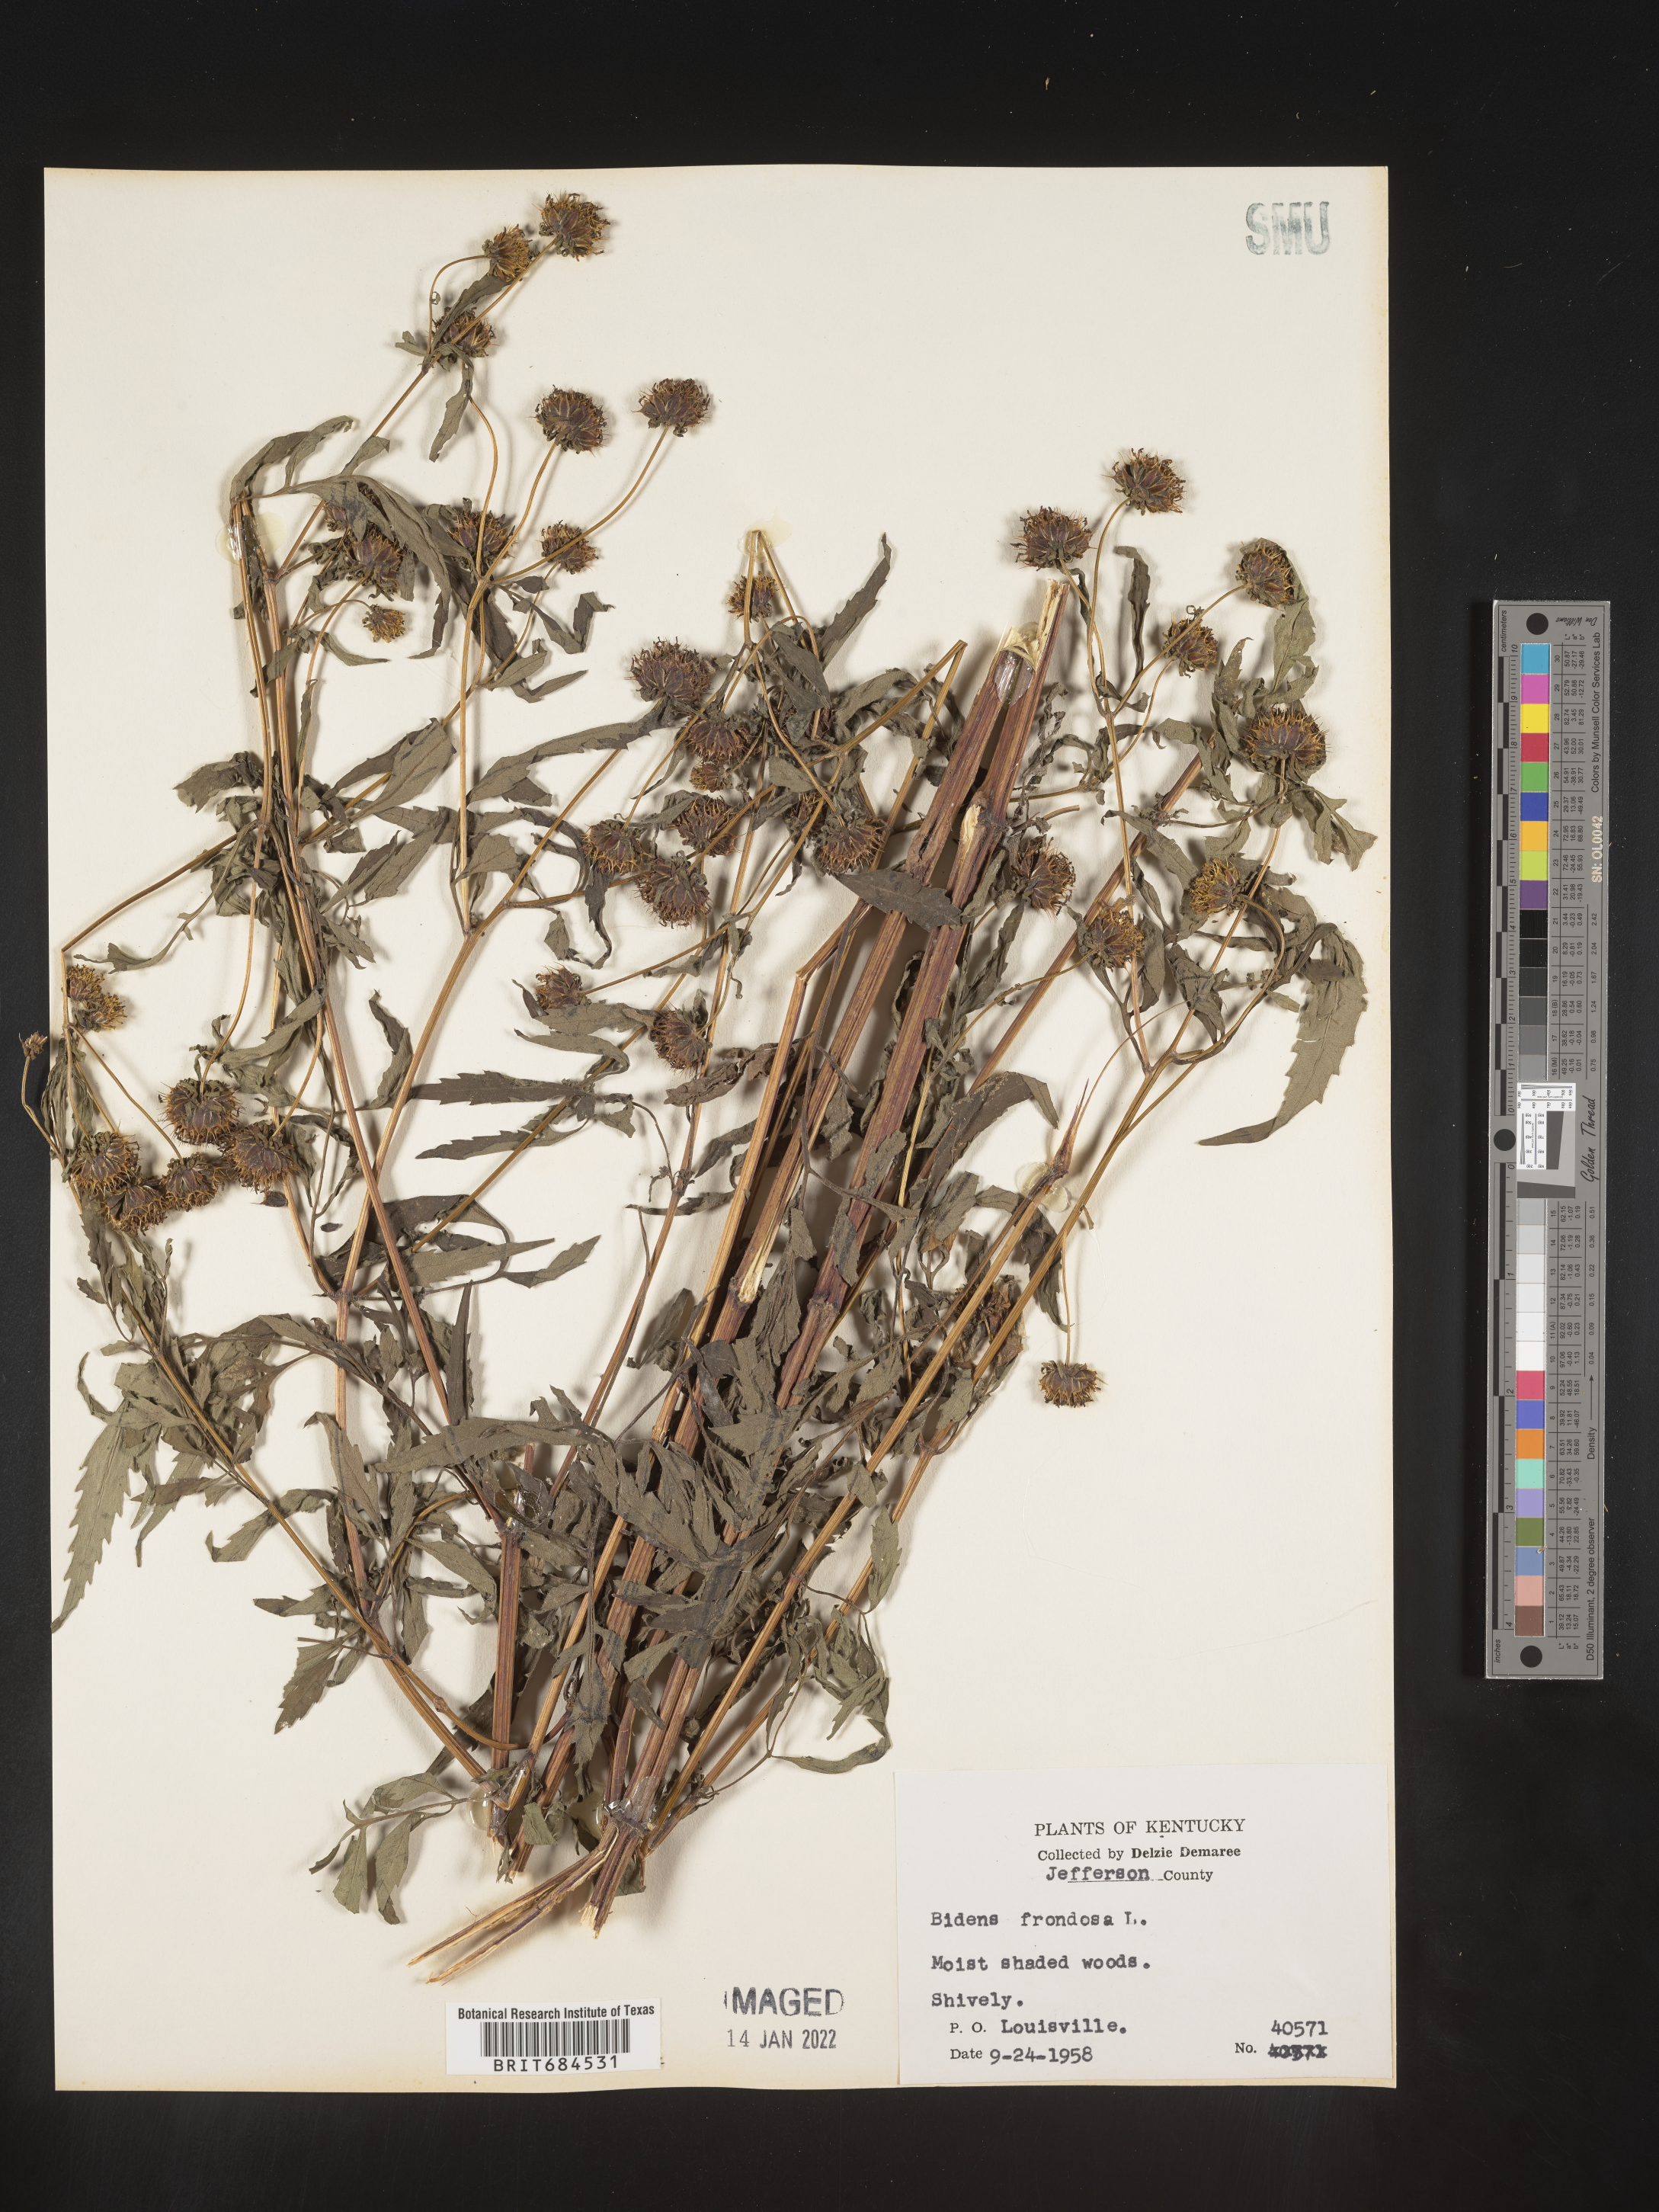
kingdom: Plantae
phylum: Tracheophyta
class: Magnoliopsida
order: Asterales
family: Asteraceae
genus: Bidens
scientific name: Bidens frondosa
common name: Beggarticks
